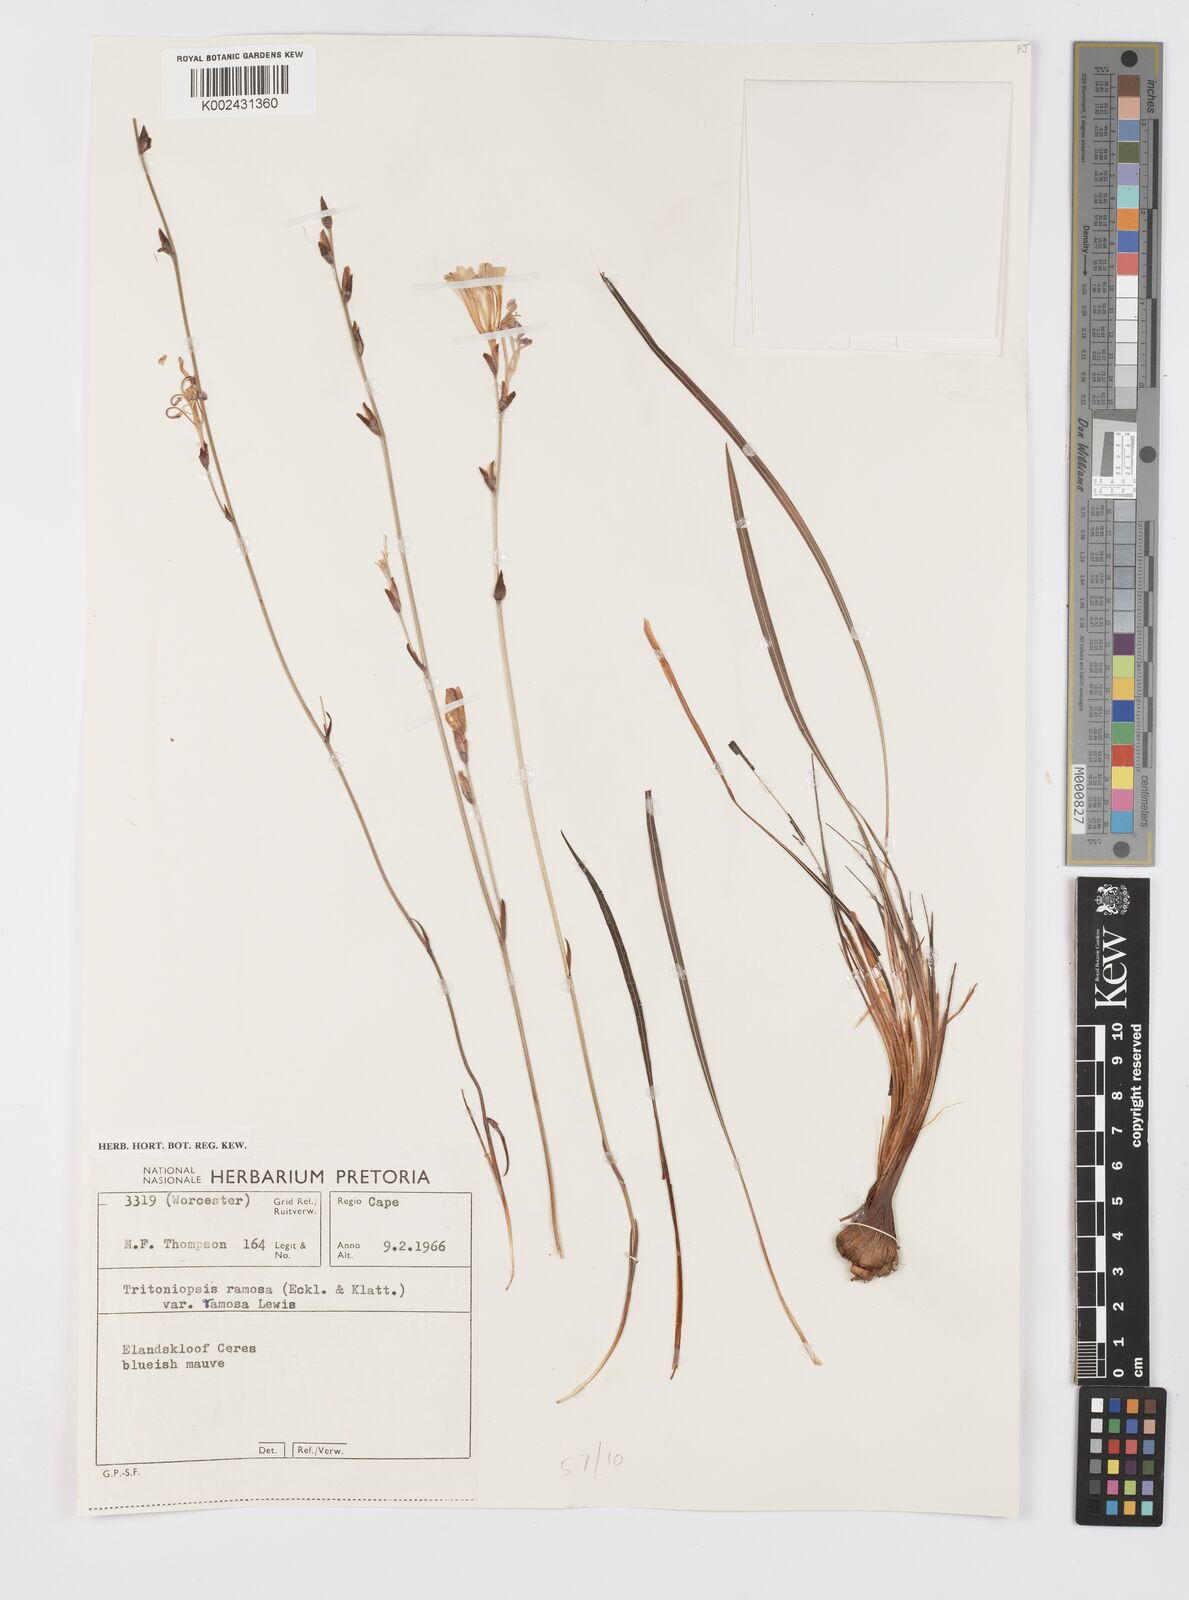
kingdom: Plantae
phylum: Tracheophyta
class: Liliopsida
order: Asparagales
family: Iridaceae
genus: Tritoniopsis
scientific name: Tritoniopsis ramosa
